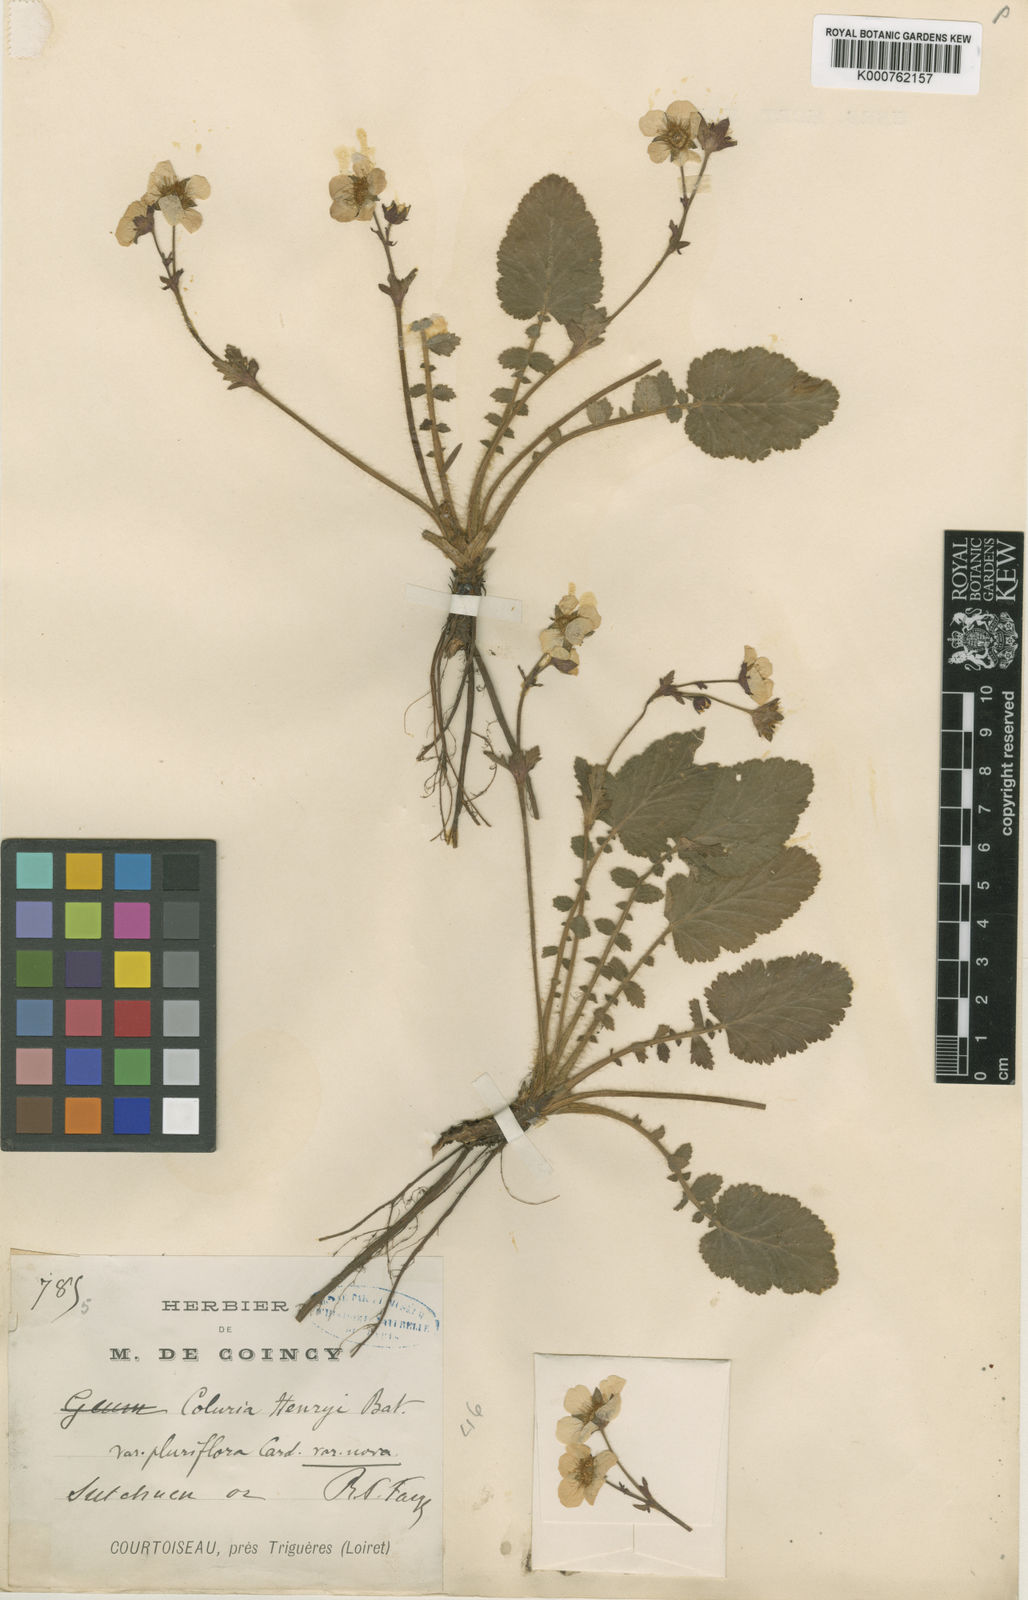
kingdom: Plantae
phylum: Tracheophyta
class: Magnoliopsida
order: Rosales
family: Rosaceae
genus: Geum
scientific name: Geum henryi
